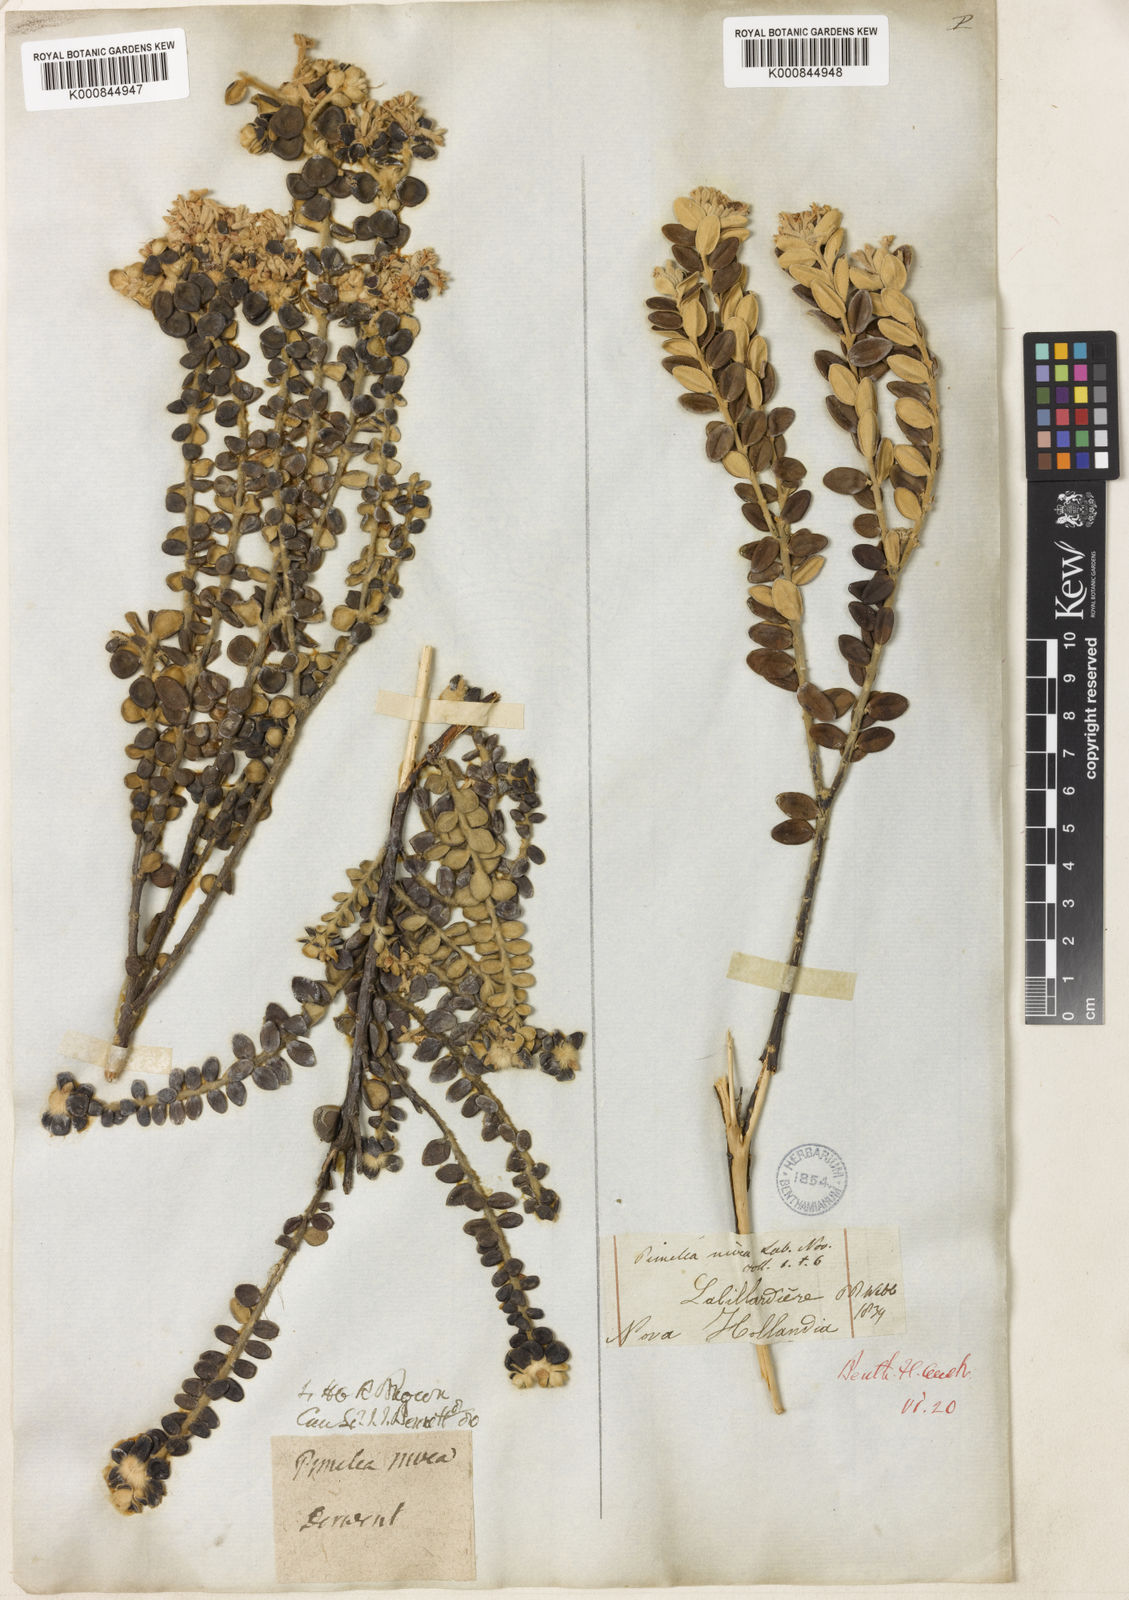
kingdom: Plantae
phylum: Tracheophyta
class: Magnoliopsida
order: Malvales
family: Thymelaeaceae
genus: Pimelea
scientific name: Pimelea nivea
